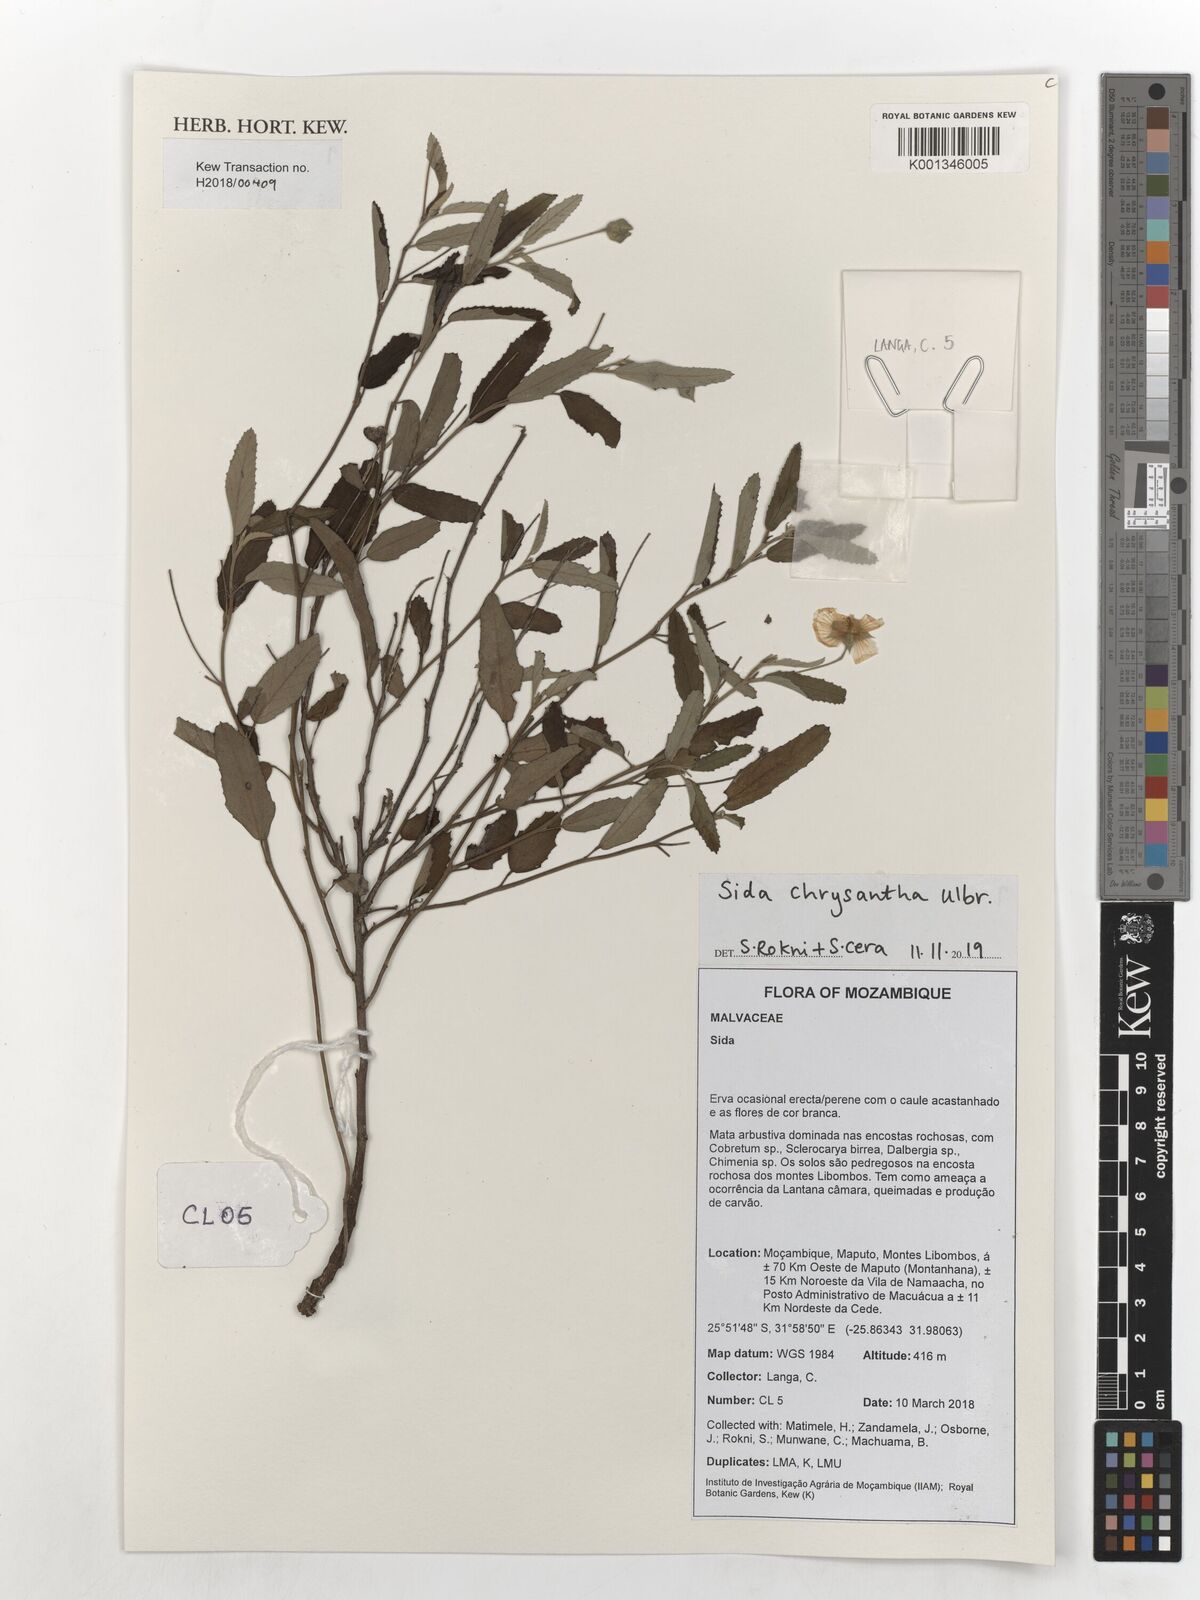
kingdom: Plantae
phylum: Tracheophyta
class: Magnoliopsida
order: Malvales
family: Malvaceae
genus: Sida
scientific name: Sida chrysantha
